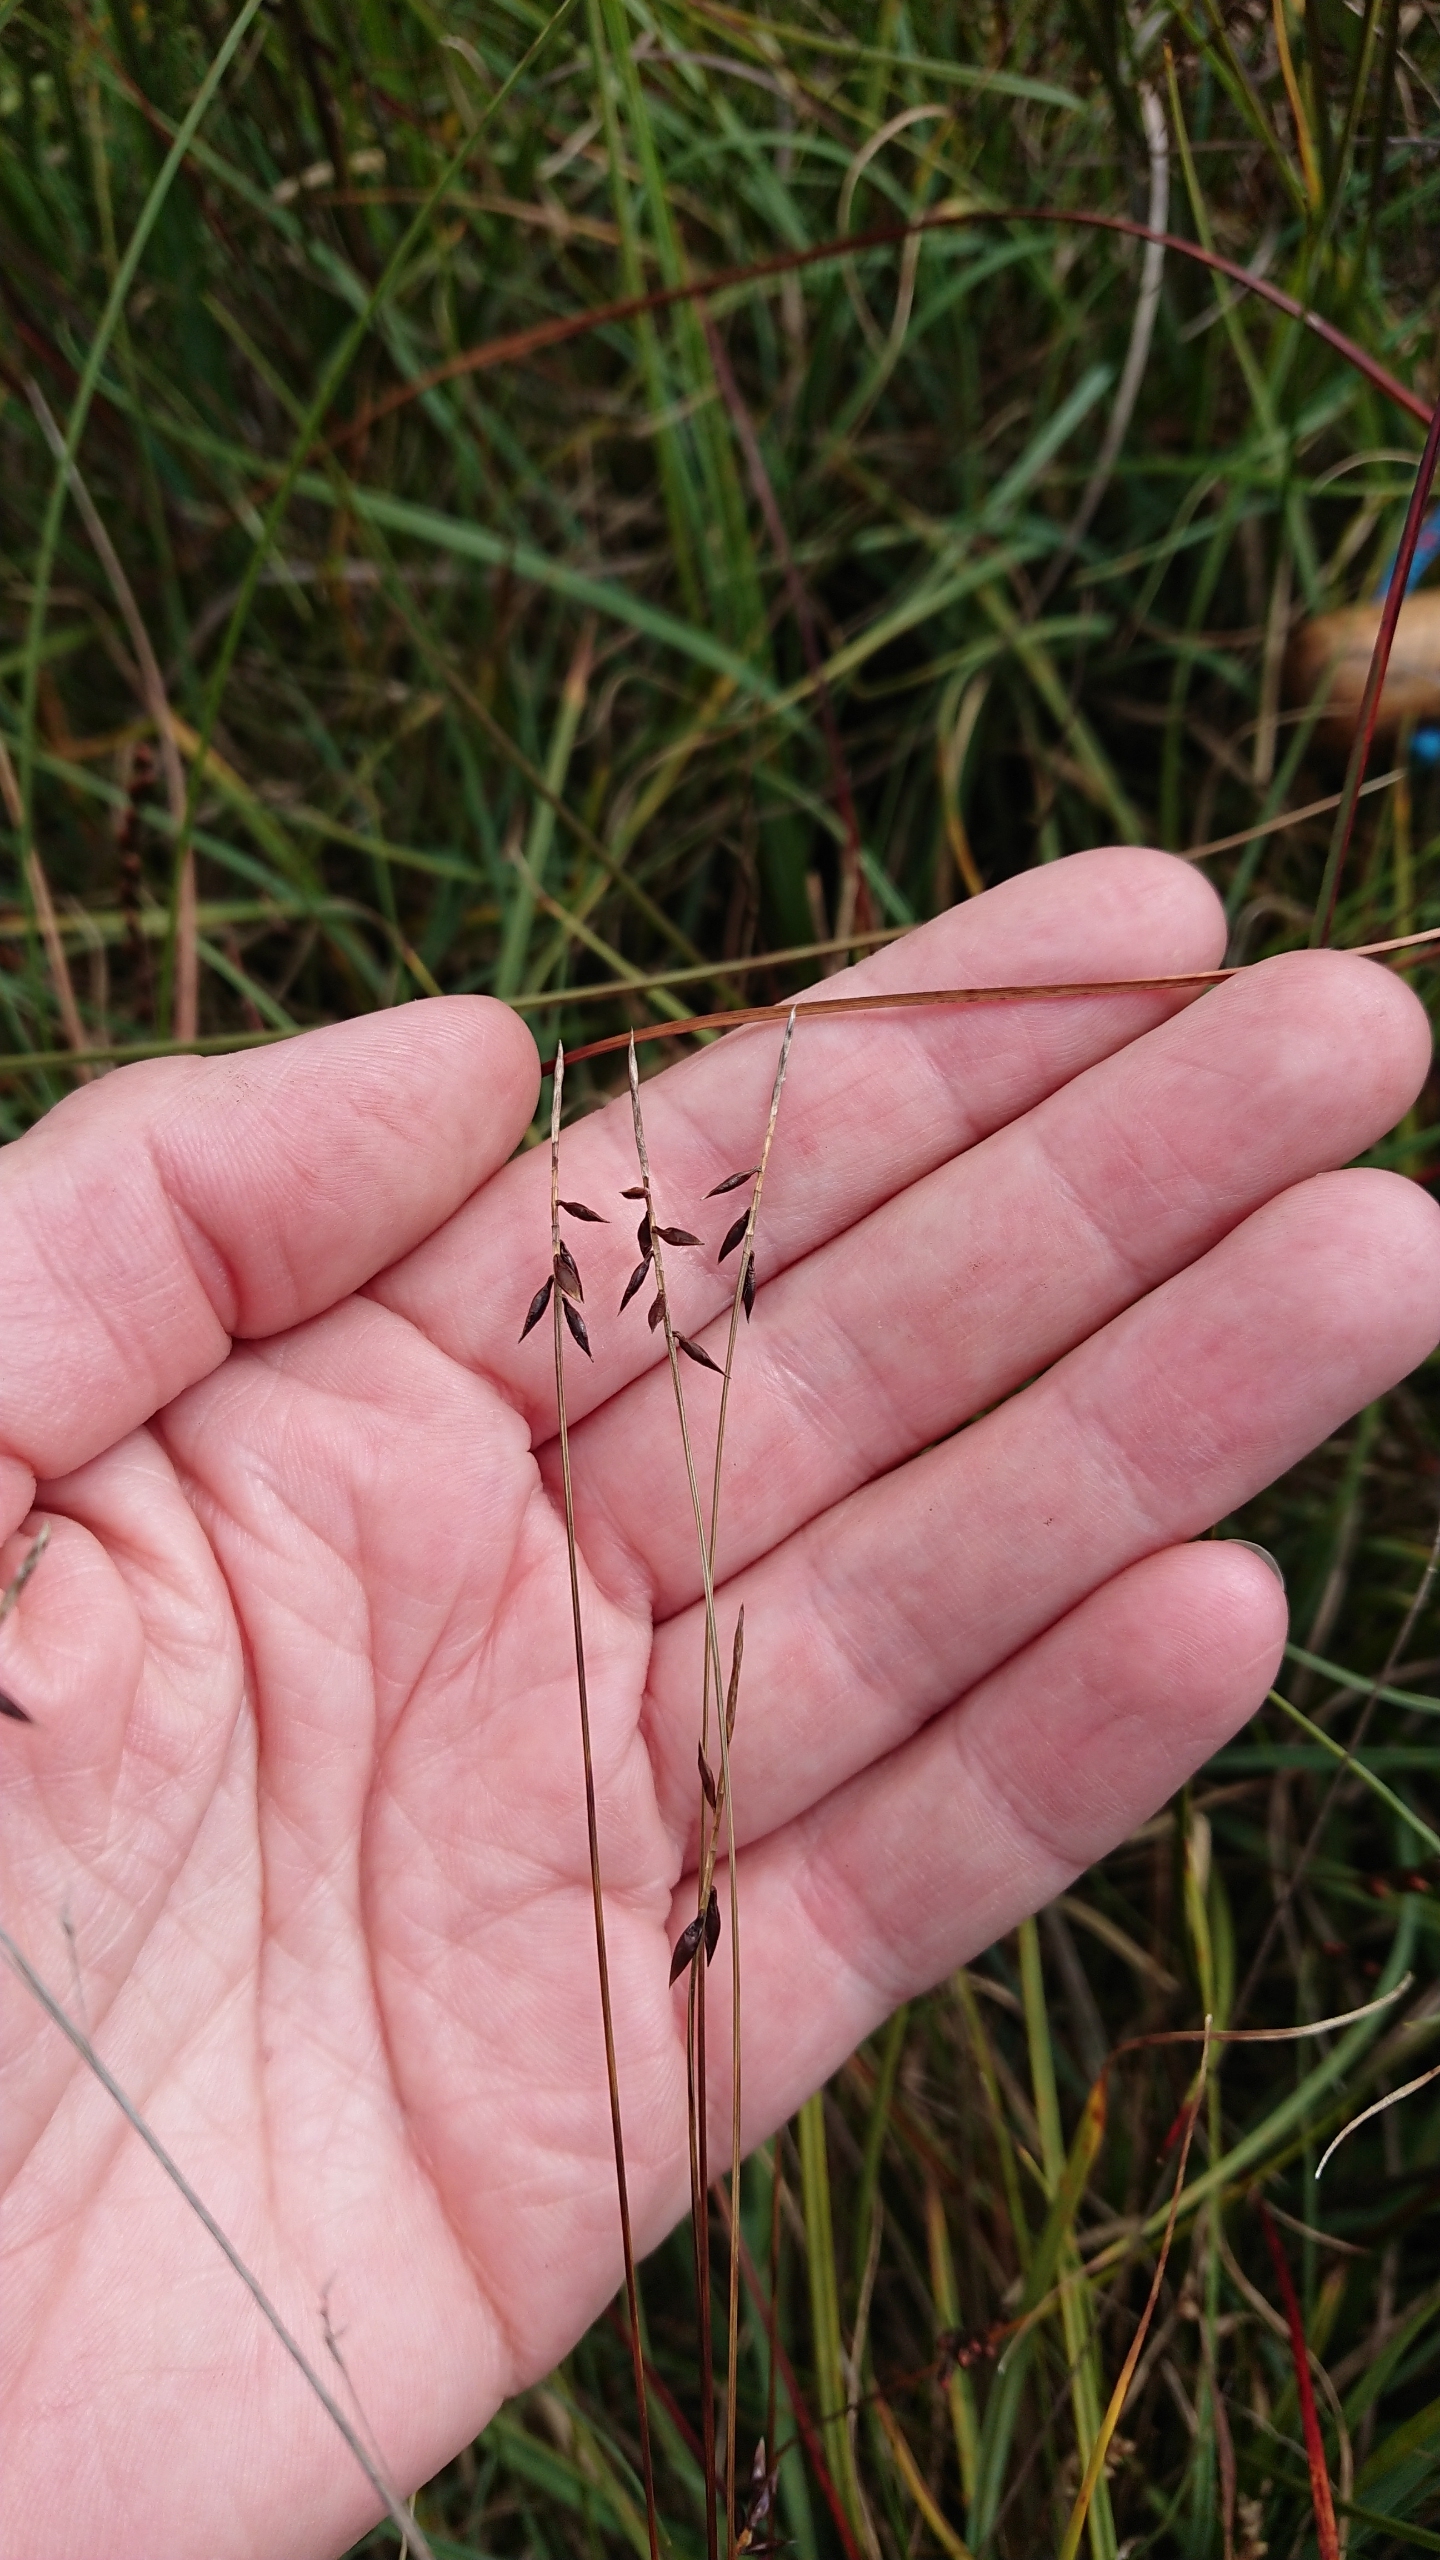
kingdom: Plantae
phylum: Tracheophyta
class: Liliopsida
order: Poales
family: Cyperaceae
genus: Carex
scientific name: Carex pulicaris
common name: Loppe-star
